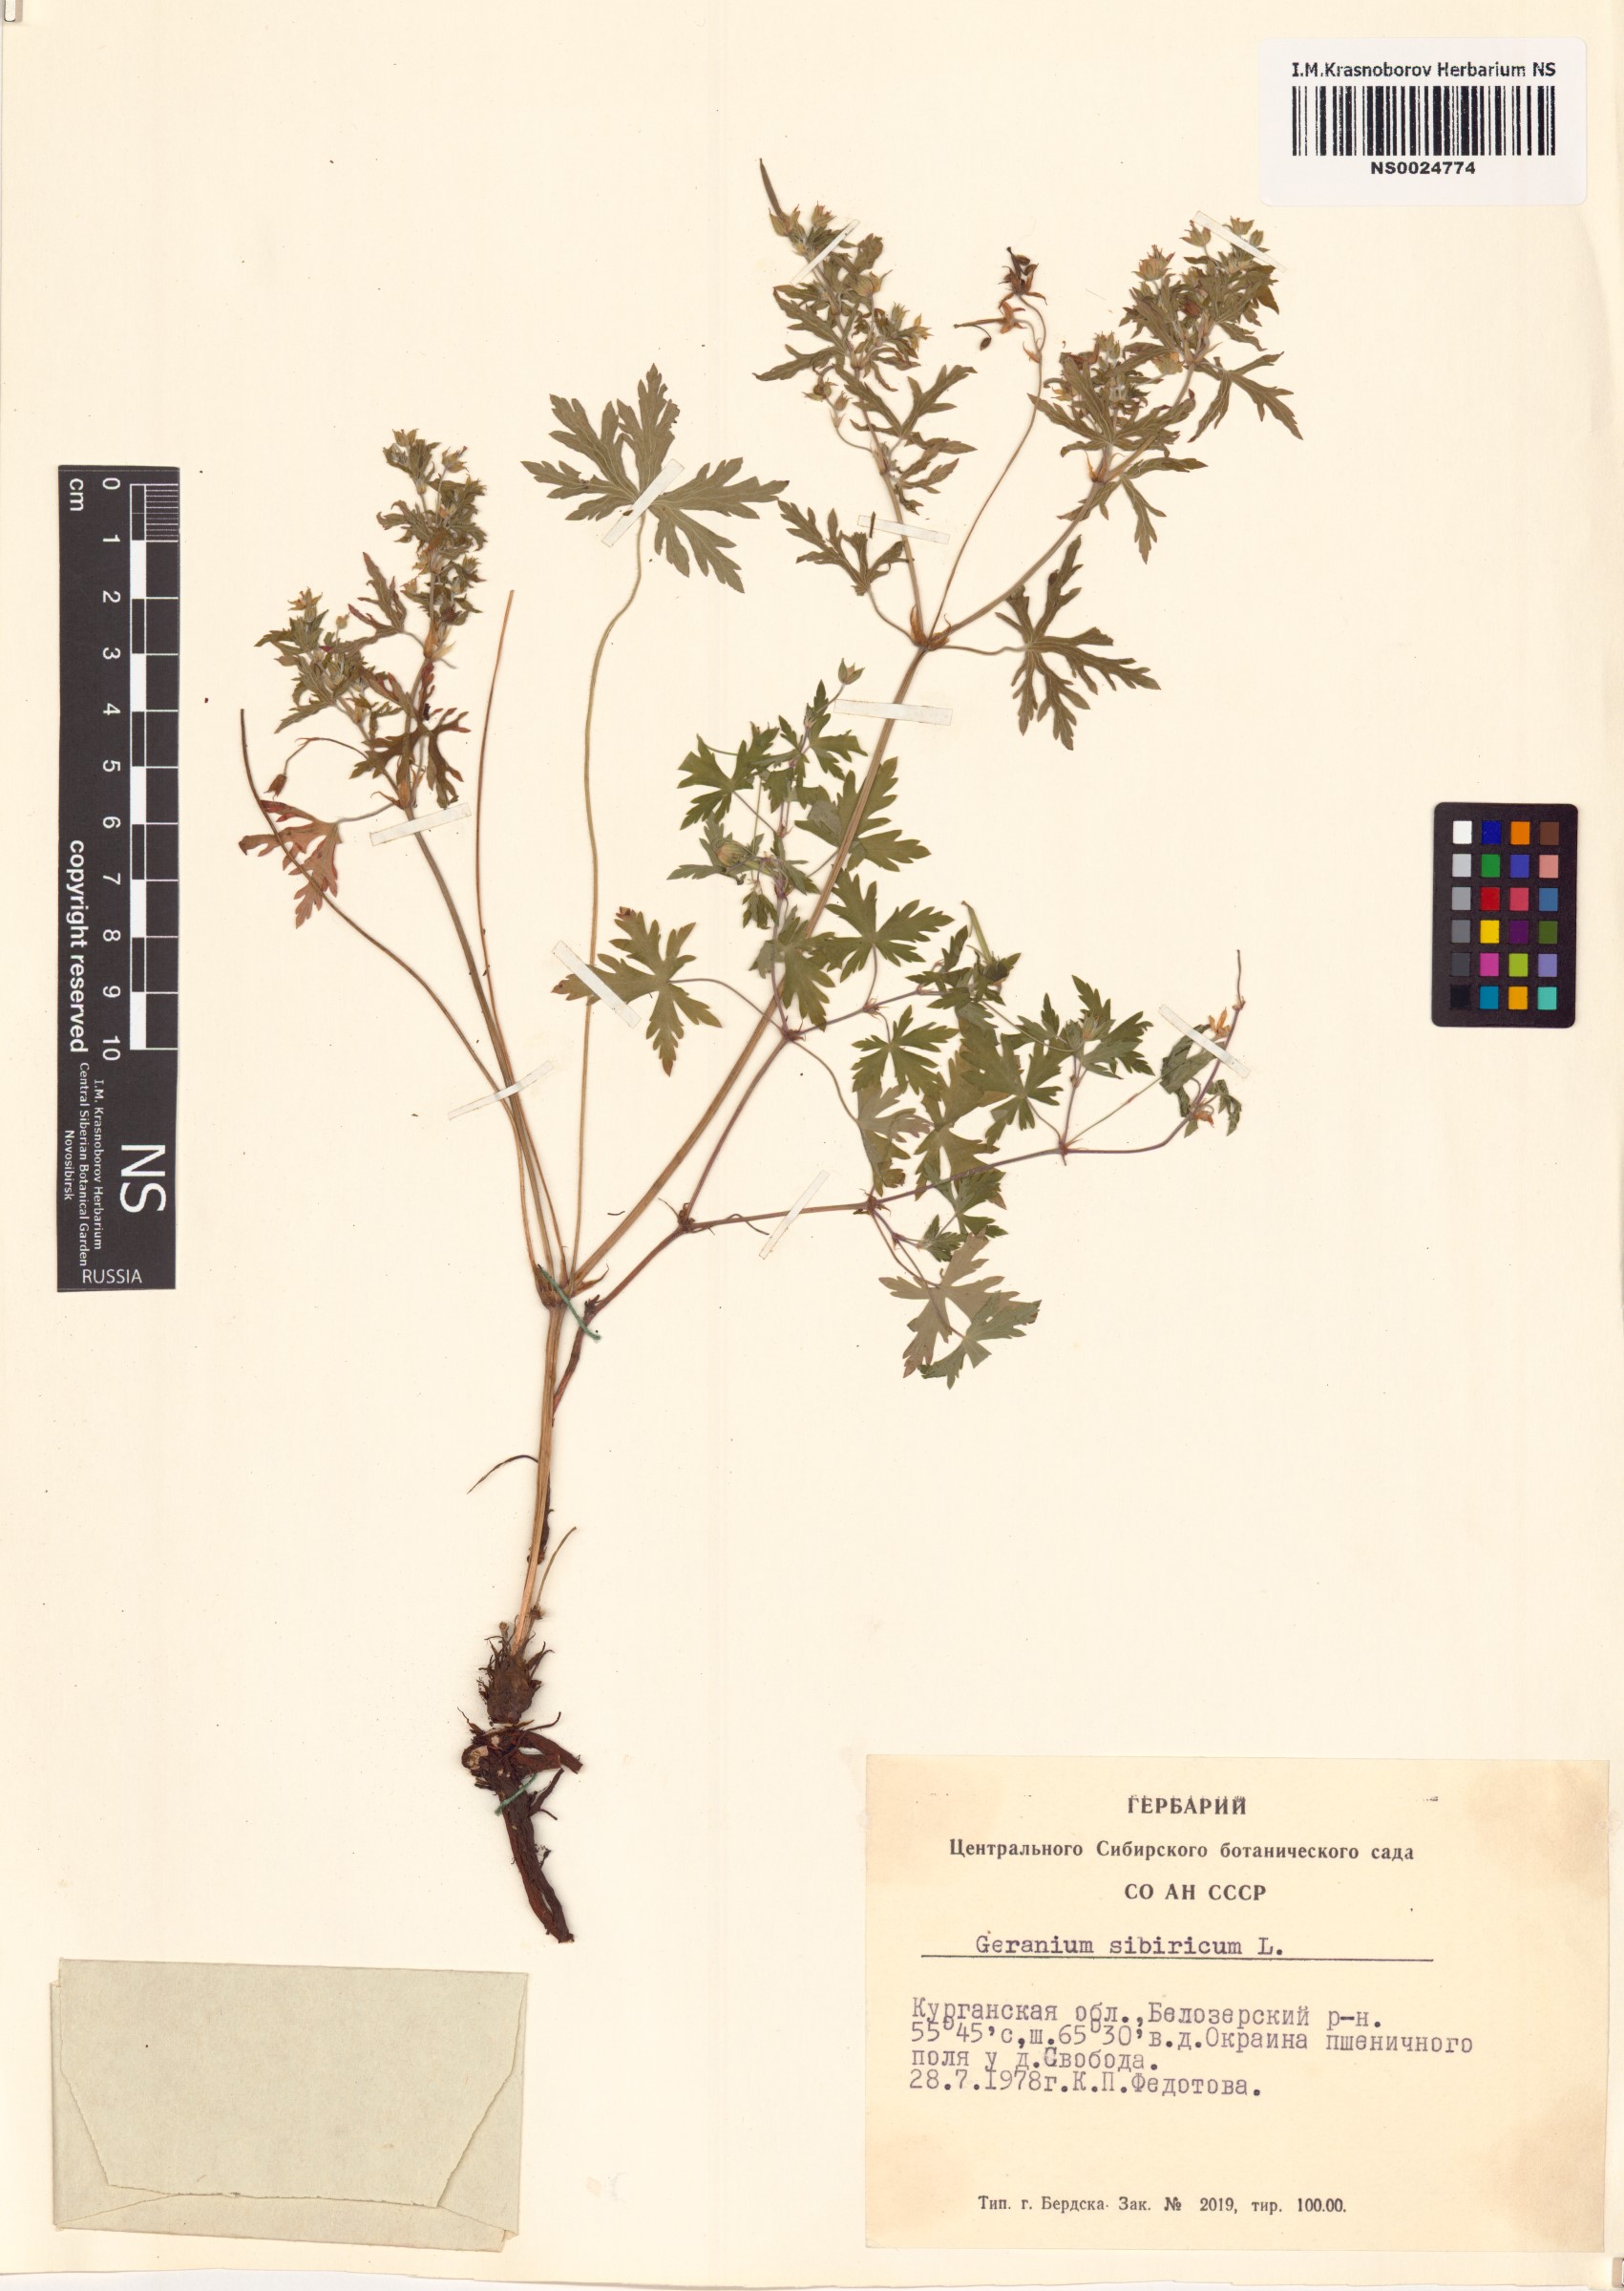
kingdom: Plantae
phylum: Tracheophyta
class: Magnoliopsida
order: Geraniales
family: Geraniaceae
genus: Geranium
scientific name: Geranium sibiricum
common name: Siberian crane's-bill
